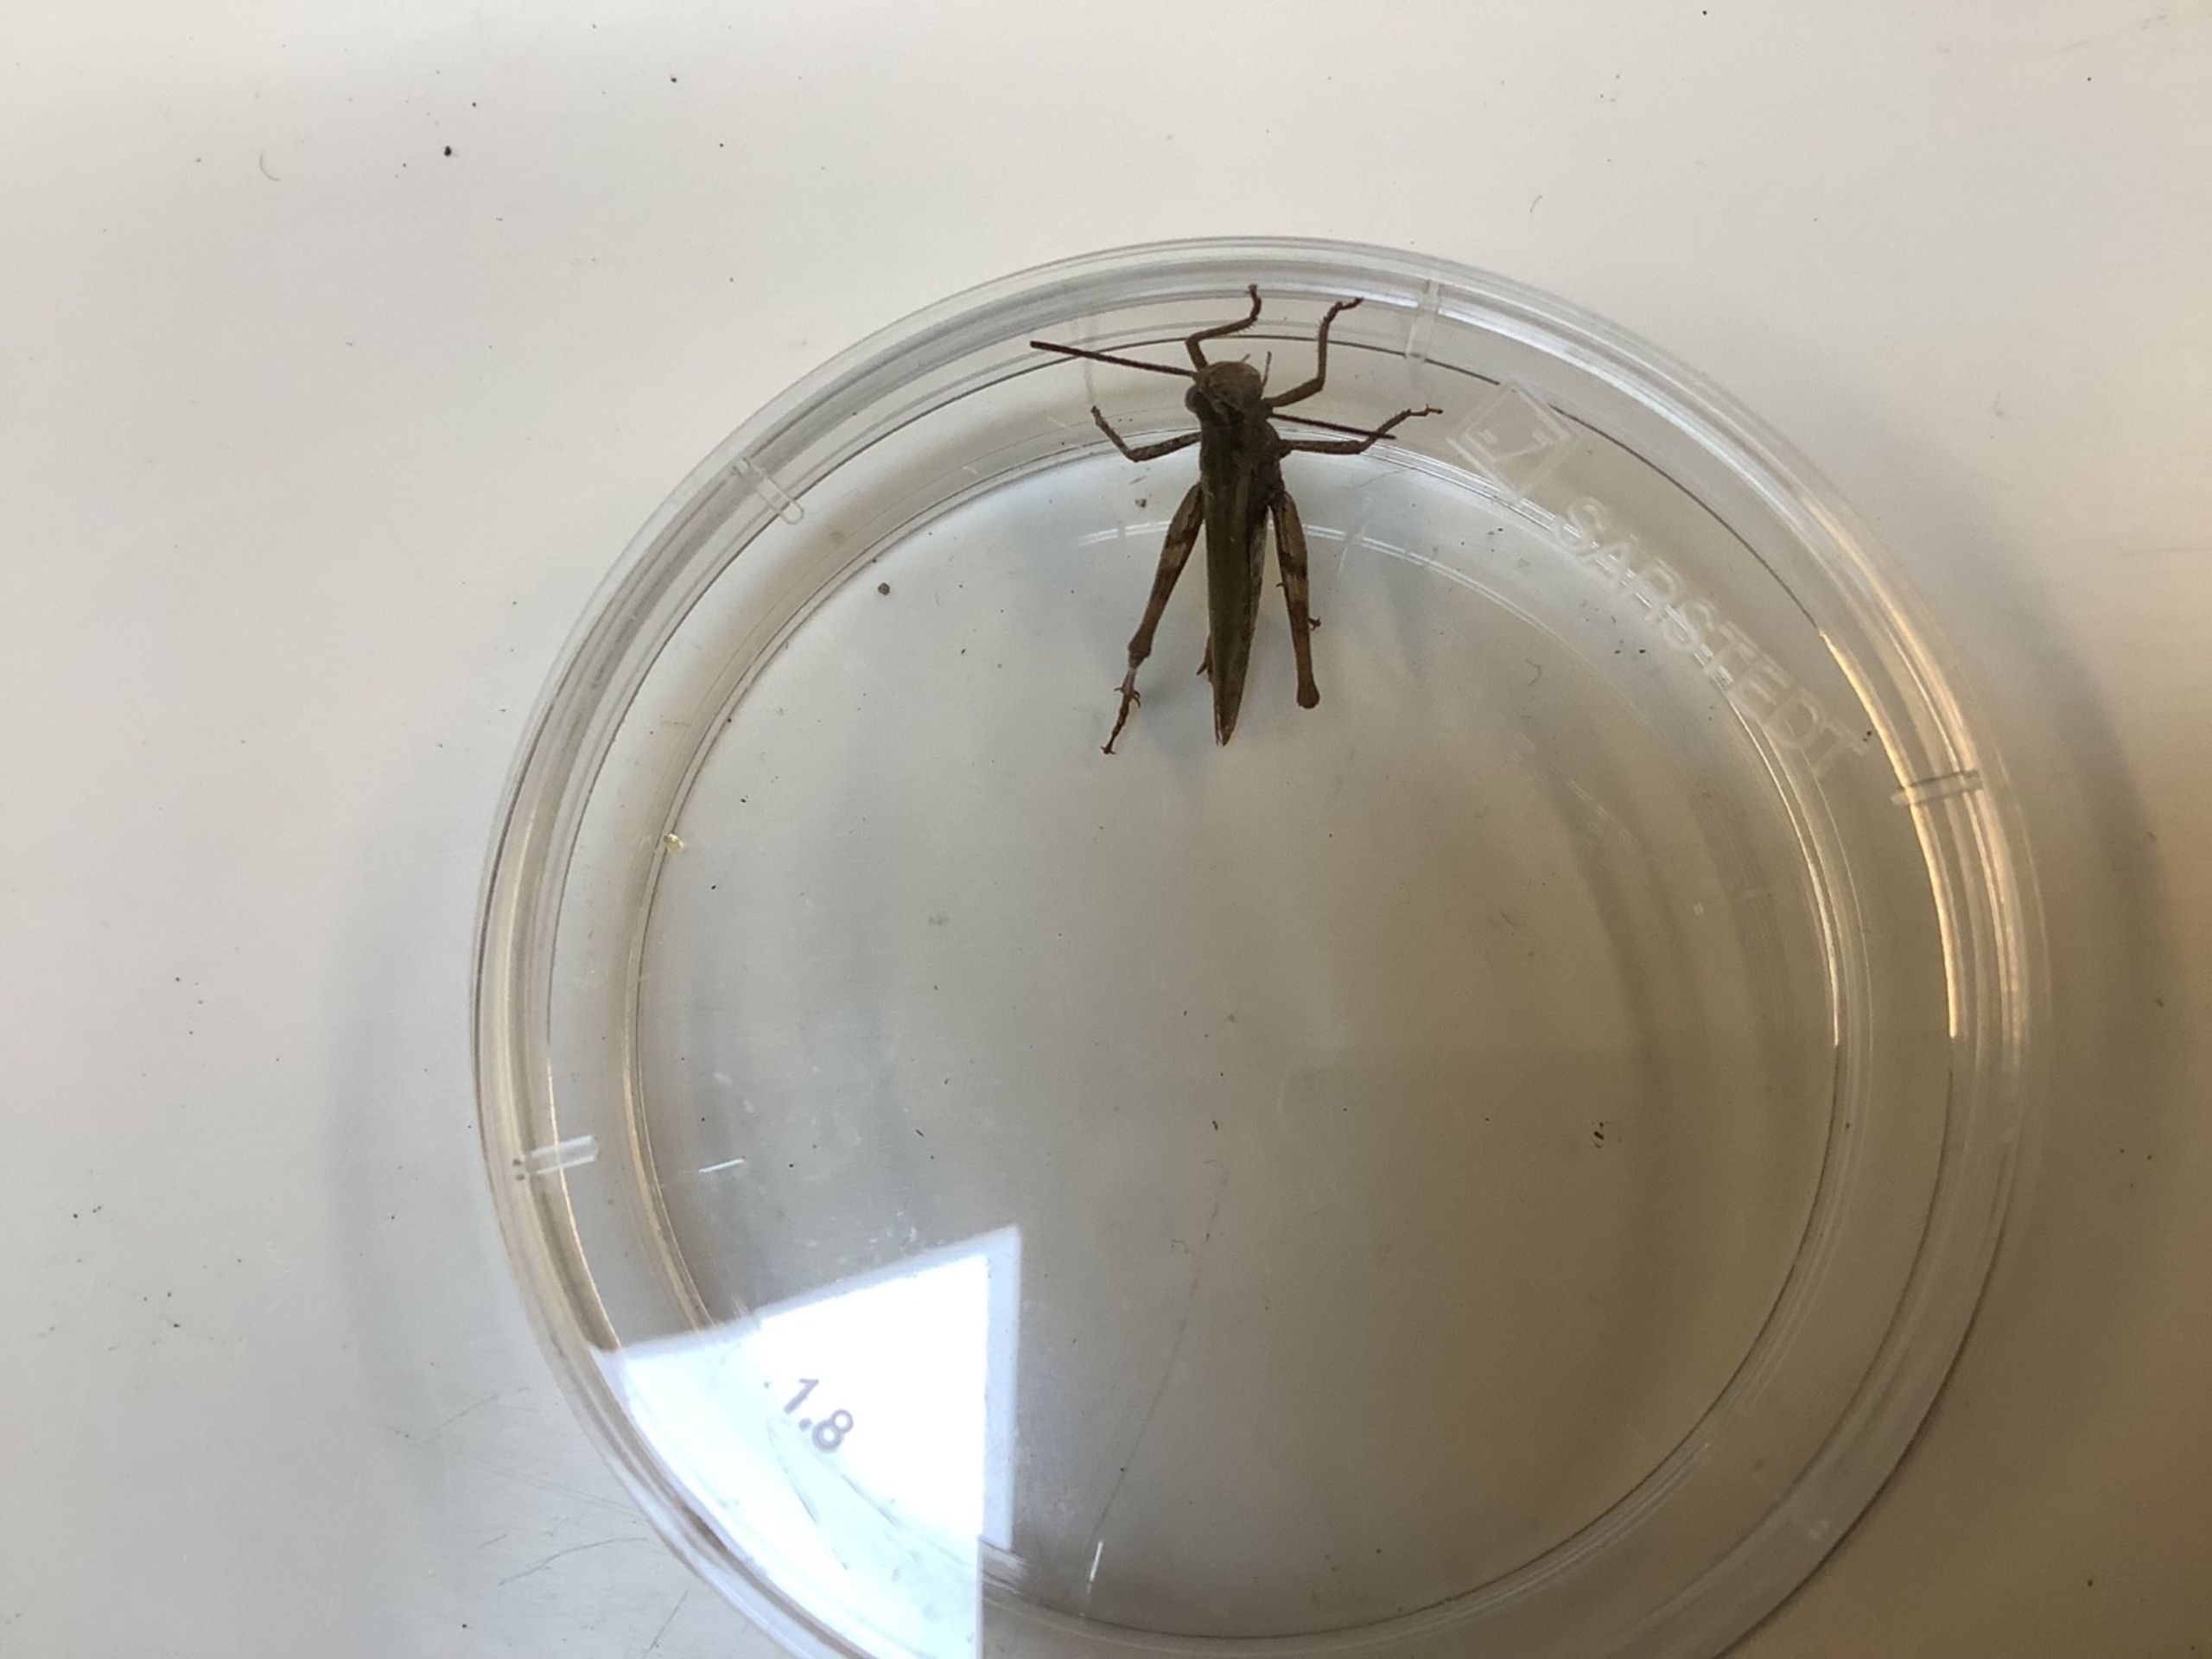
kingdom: Animalia
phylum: Arthropoda
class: Insecta
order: Orthoptera
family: Acrididae
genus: Chorthippus
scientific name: Chorthippus
